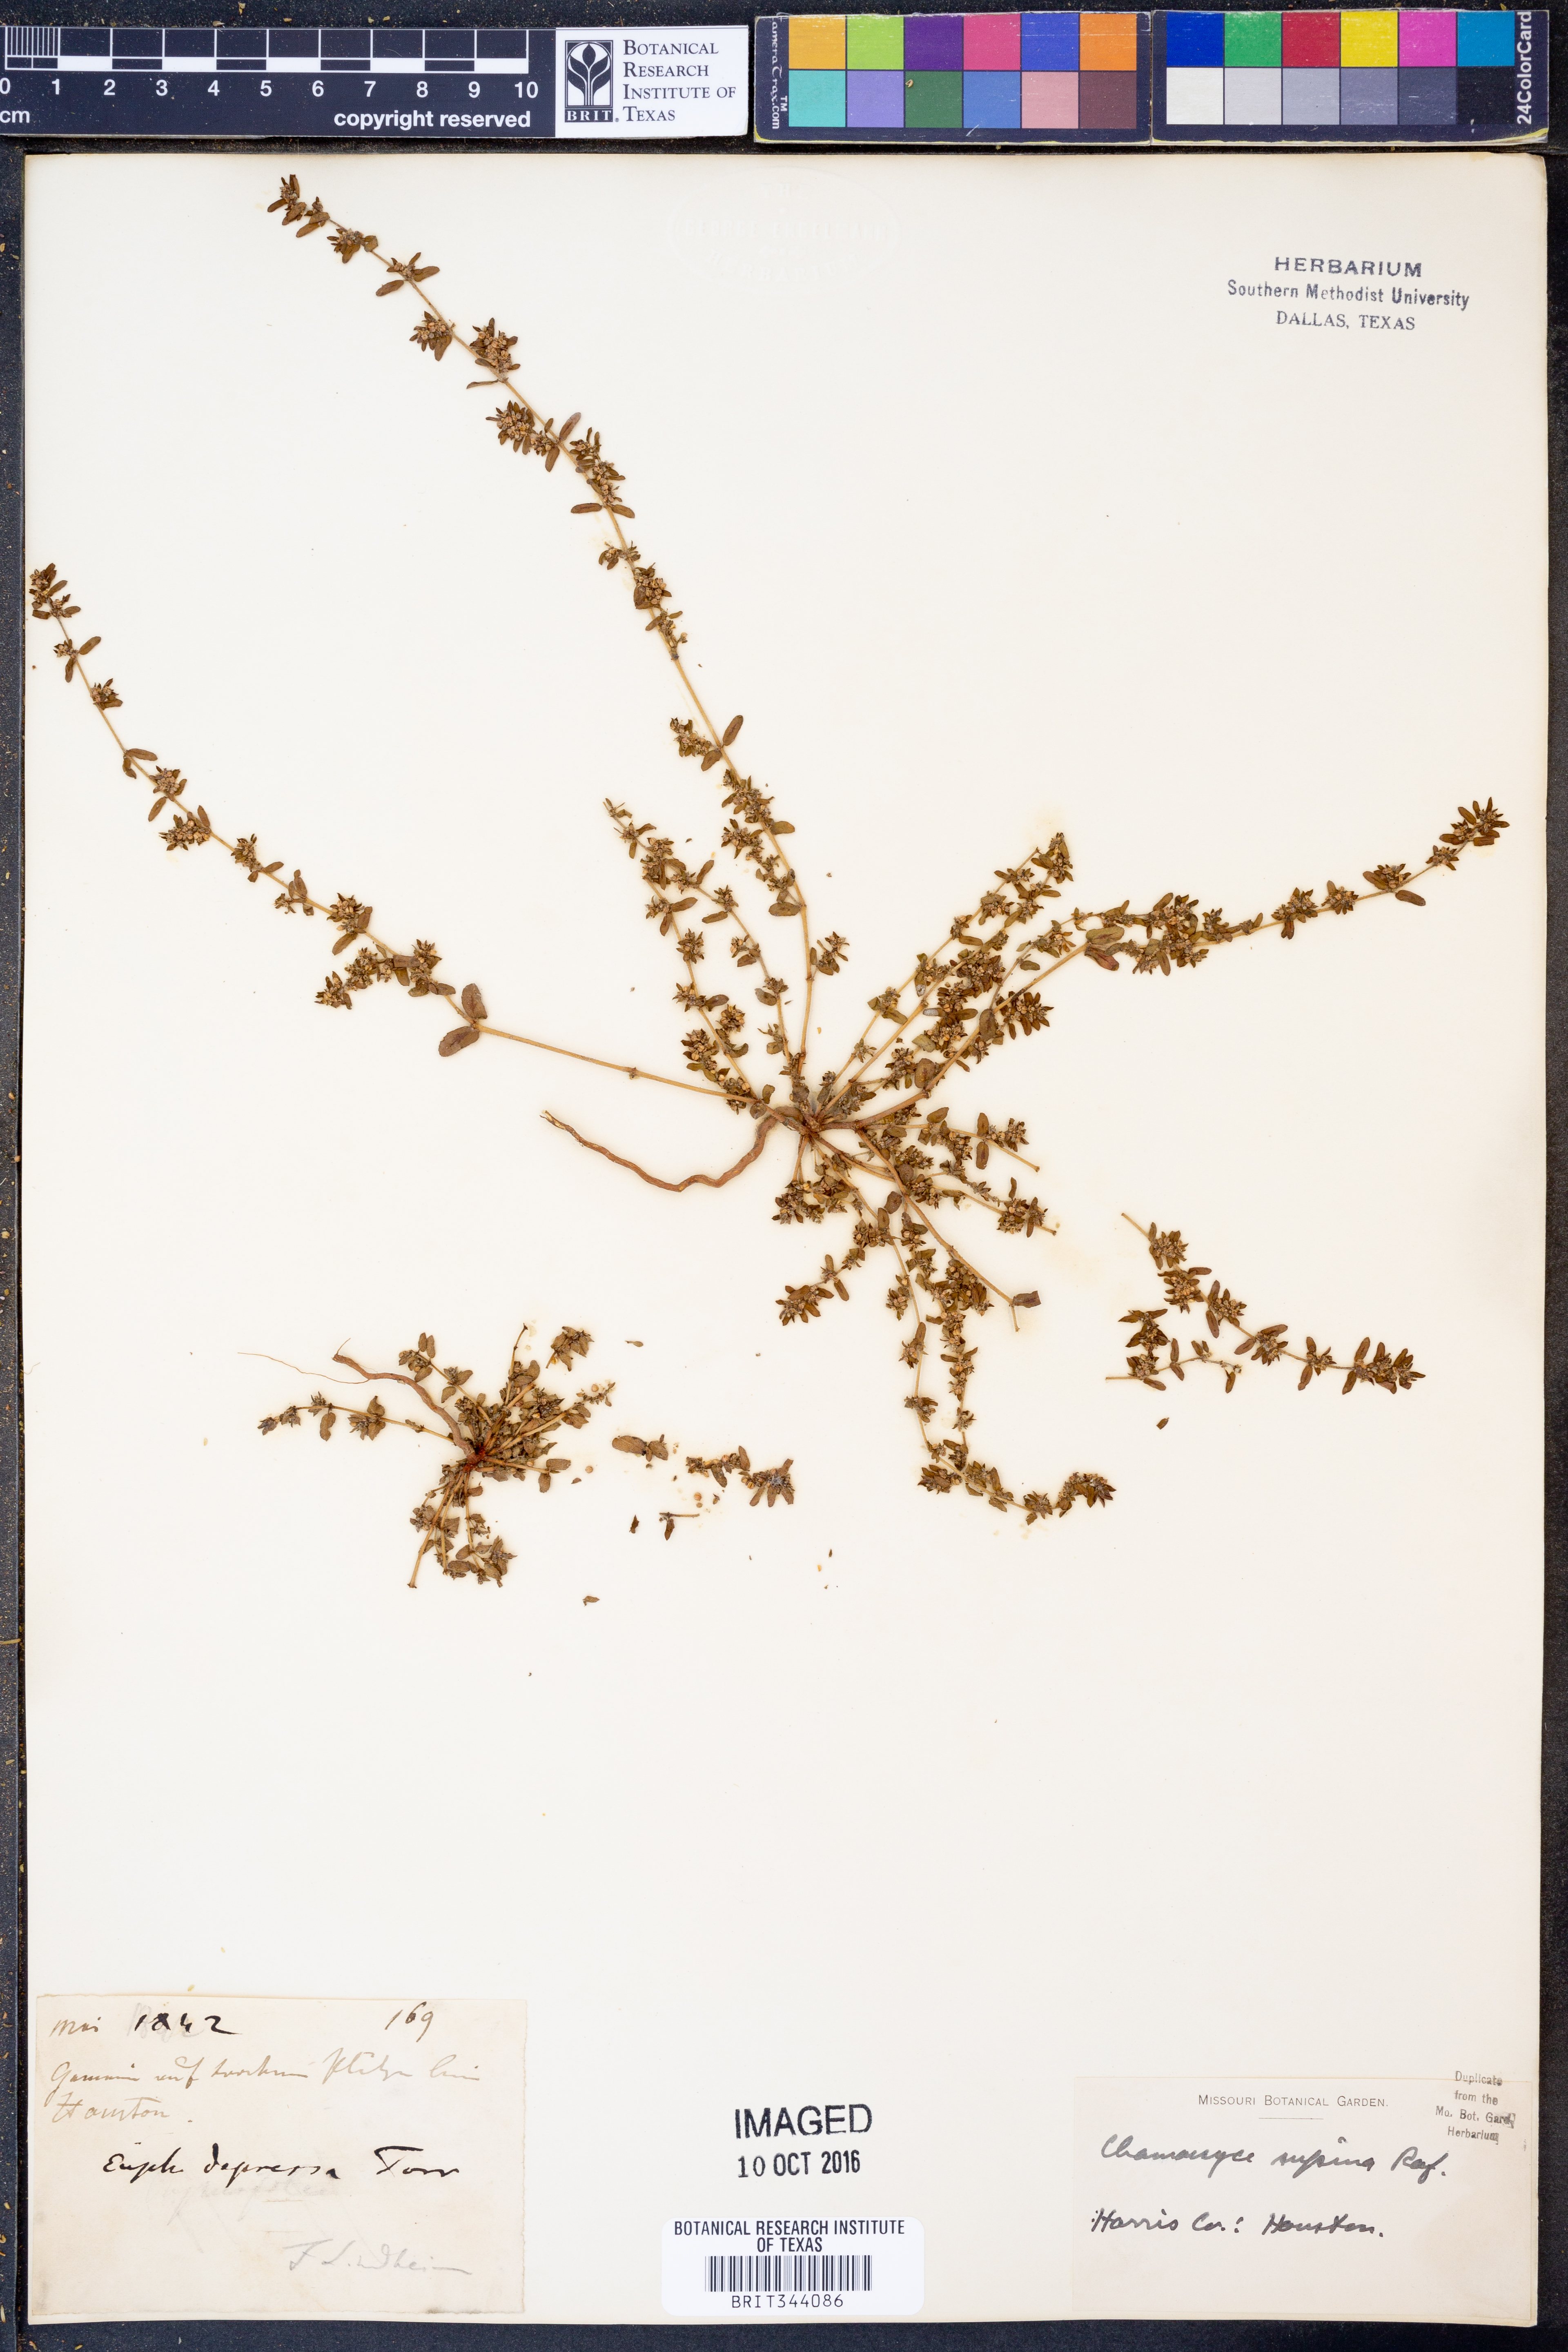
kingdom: Plantae
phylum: Tracheophyta
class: Magnoliopsida
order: Malpighiales
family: Euphorbiaceae
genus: Euphorbia
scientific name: Euphorbia maculata
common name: Spotted spurge
